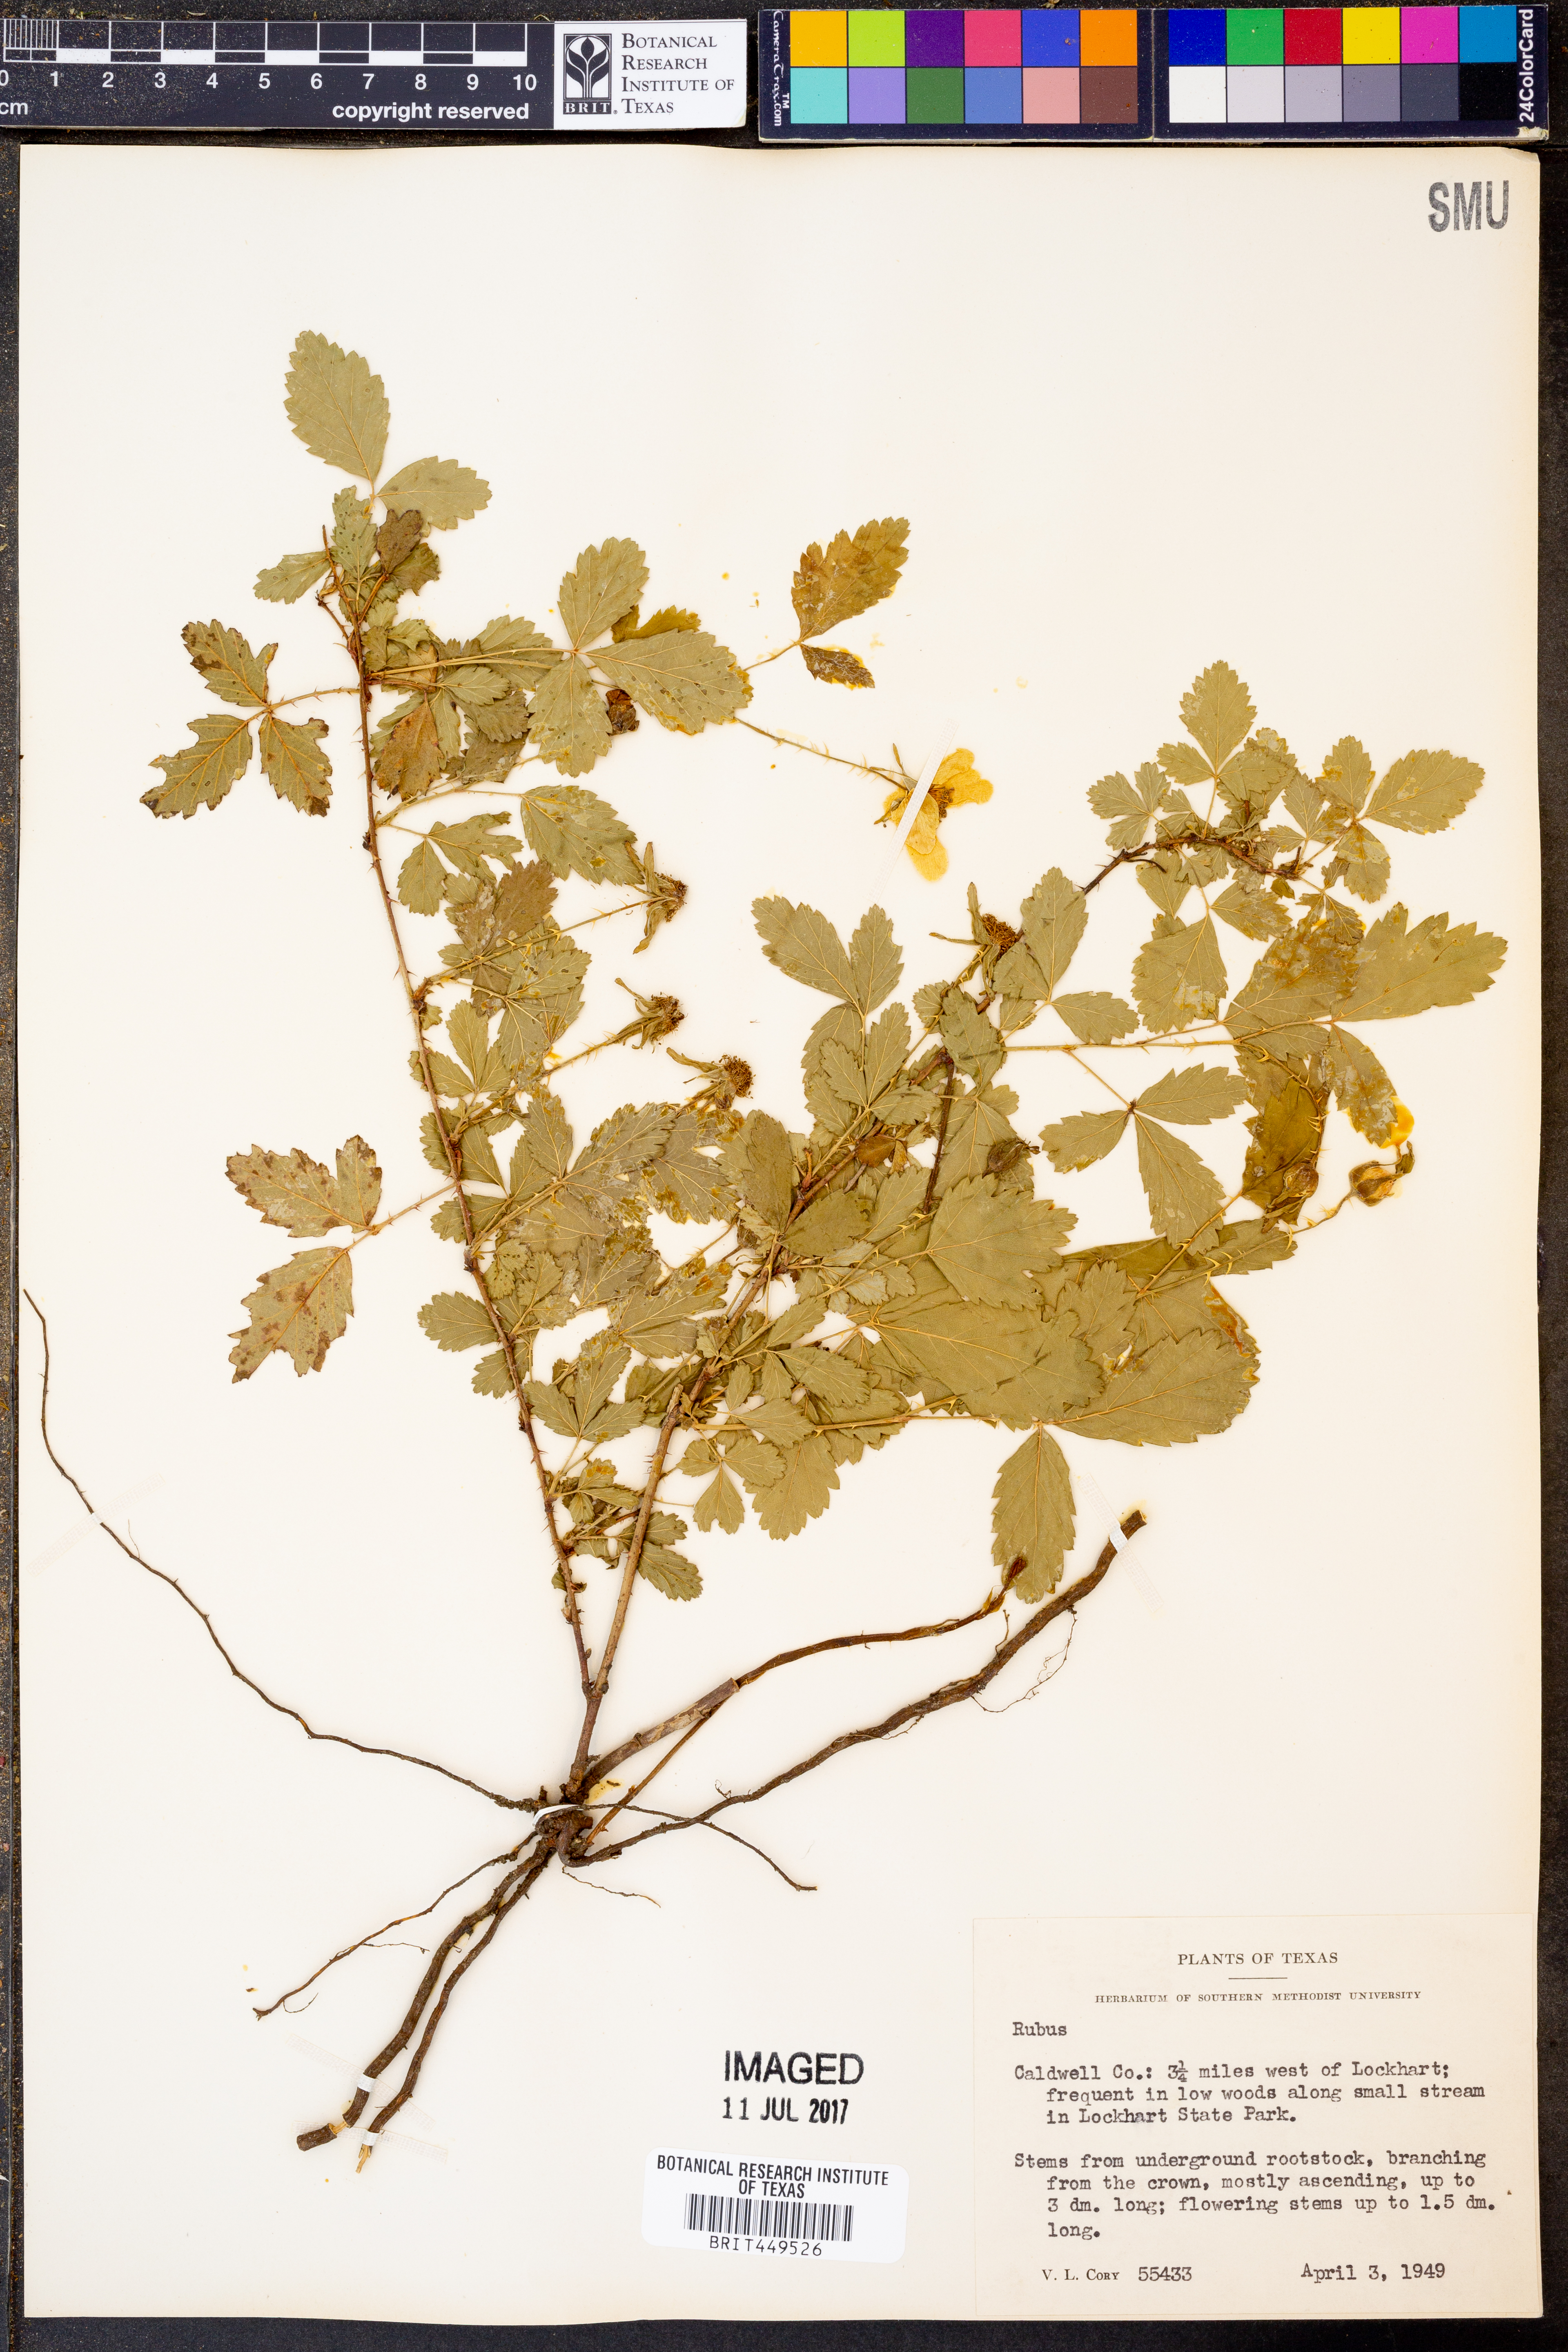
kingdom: Plantae
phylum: Tracheophyta
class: Magnoliopsida
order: Rosales
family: Rosaceae
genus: Rubus
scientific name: Rubus
